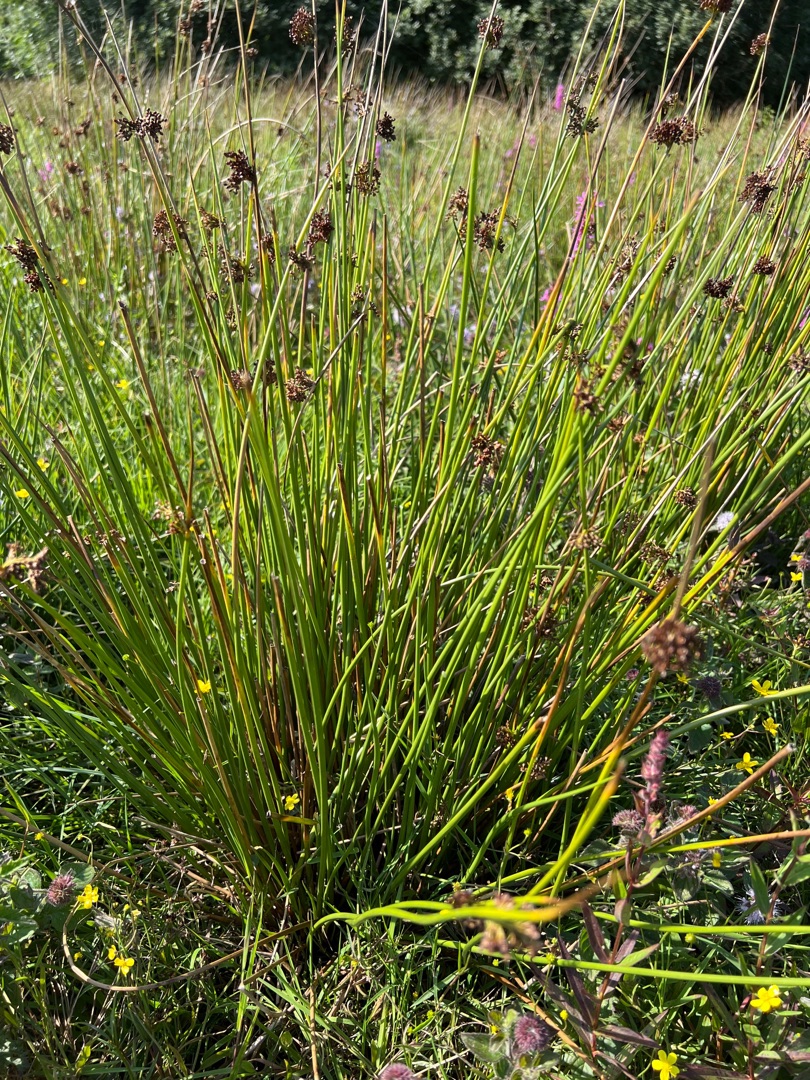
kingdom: Plantae
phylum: Tracheophyta
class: Liliopsida
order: Poales
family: Juncaceae
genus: Juncus
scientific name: Juncus effusus
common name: Lyse-siv
